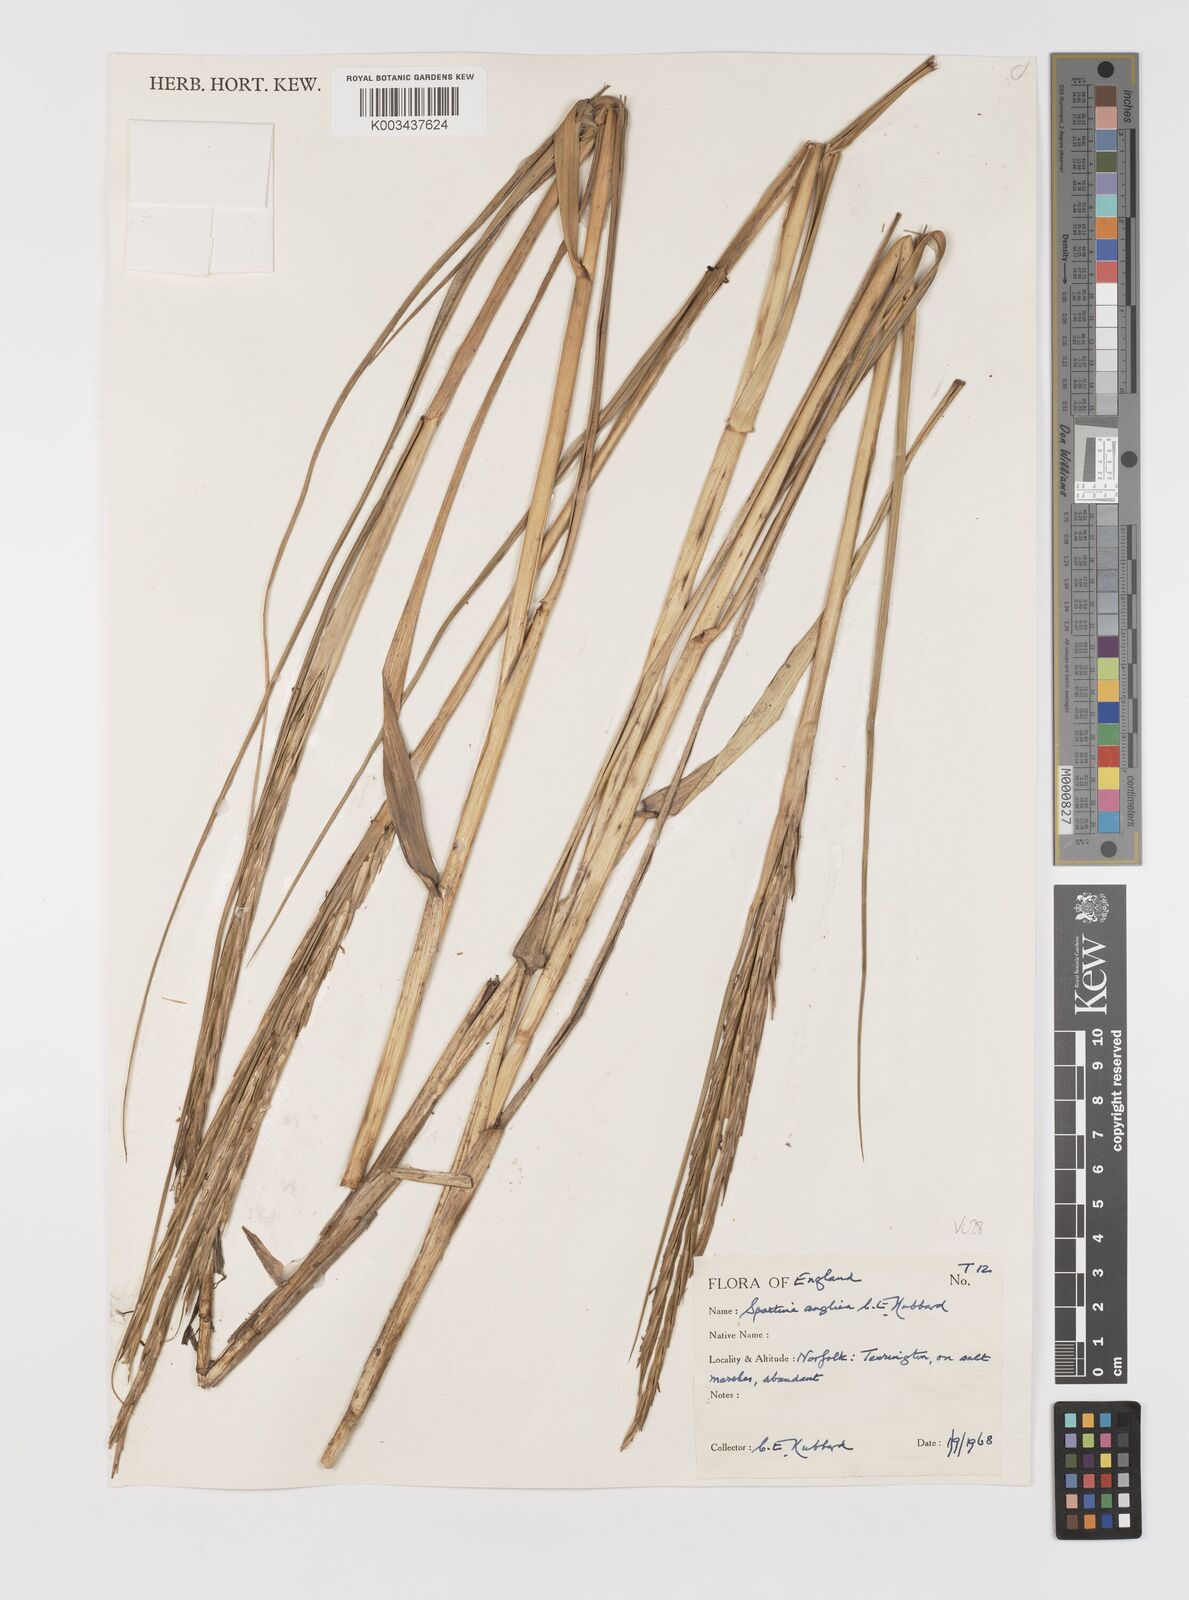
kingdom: Plantae
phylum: Tracheophyta
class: Liliopsida
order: Poales
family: Poaceae
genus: Sporobolus
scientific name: Sporobolus anglicus
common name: English cordgrass
